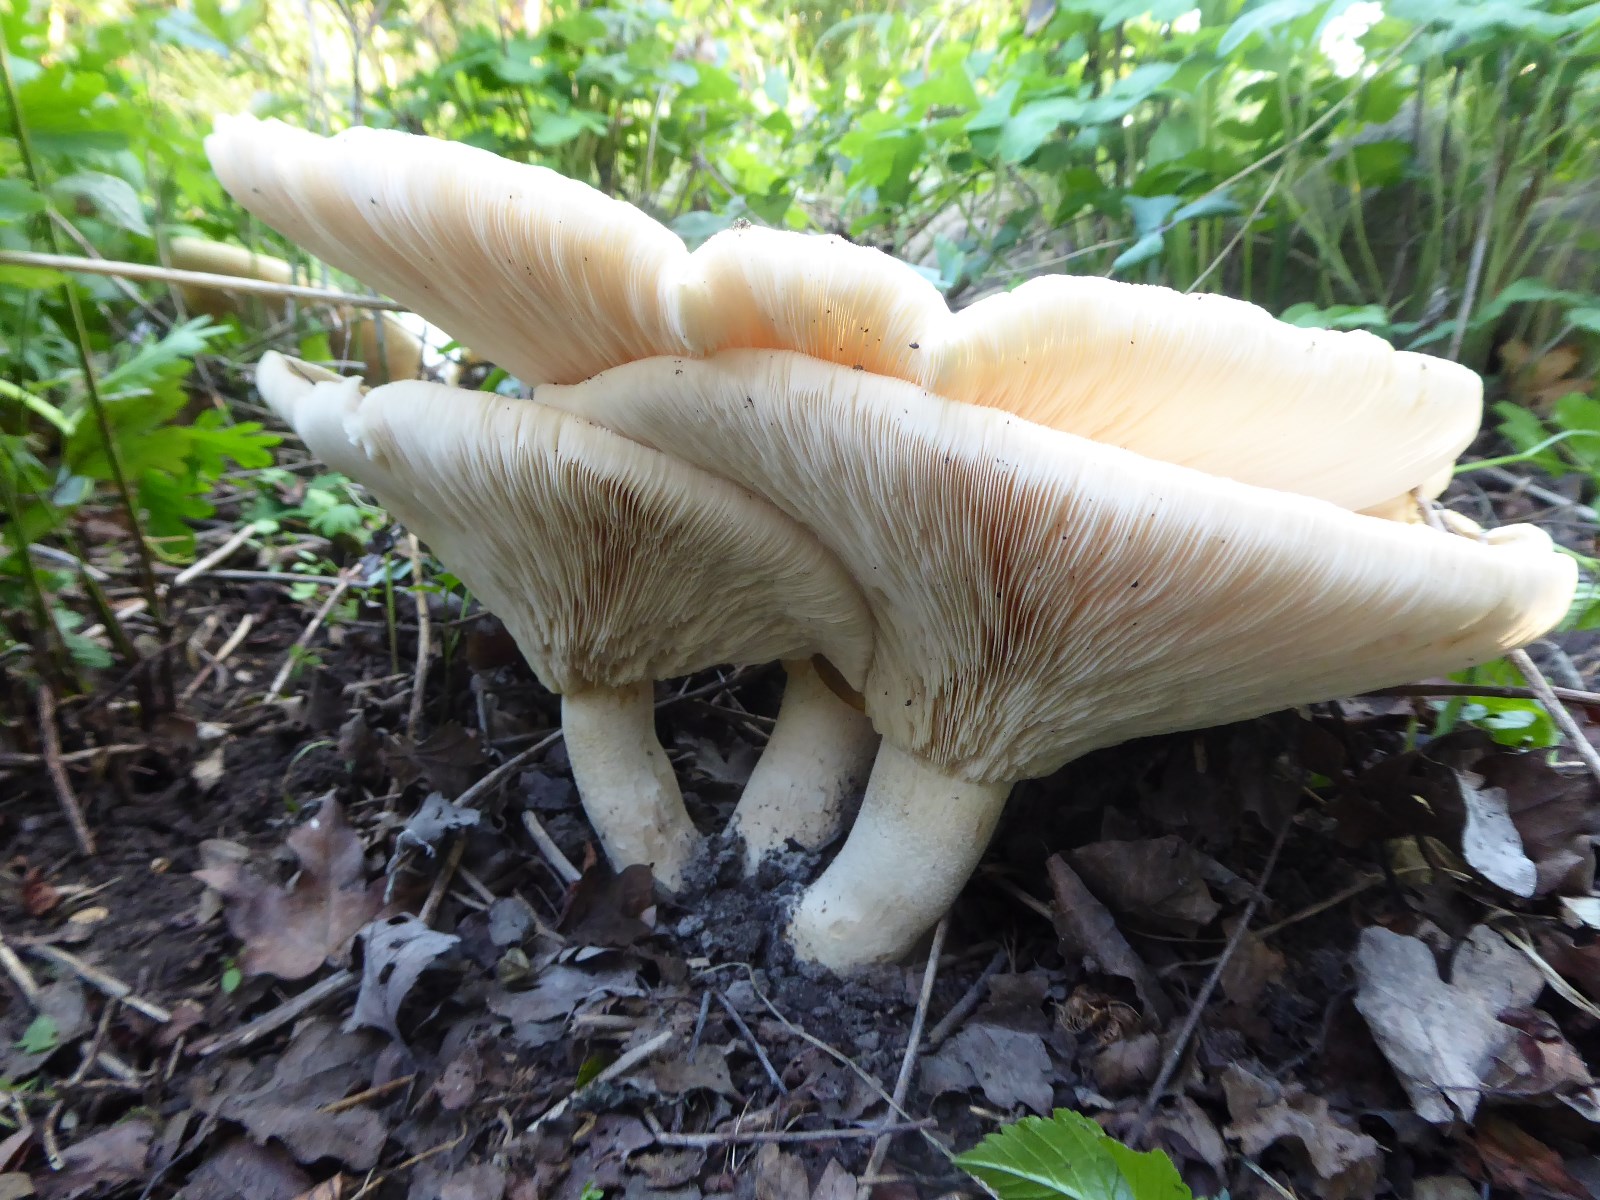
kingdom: Fungi
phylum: Basidiomycota
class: Agaricomycetes
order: Agaricales
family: Tricholomataceae
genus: Aspropaxillus
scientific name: Aspropaxillus giganteus
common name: kæmpe-tragtridderhat
